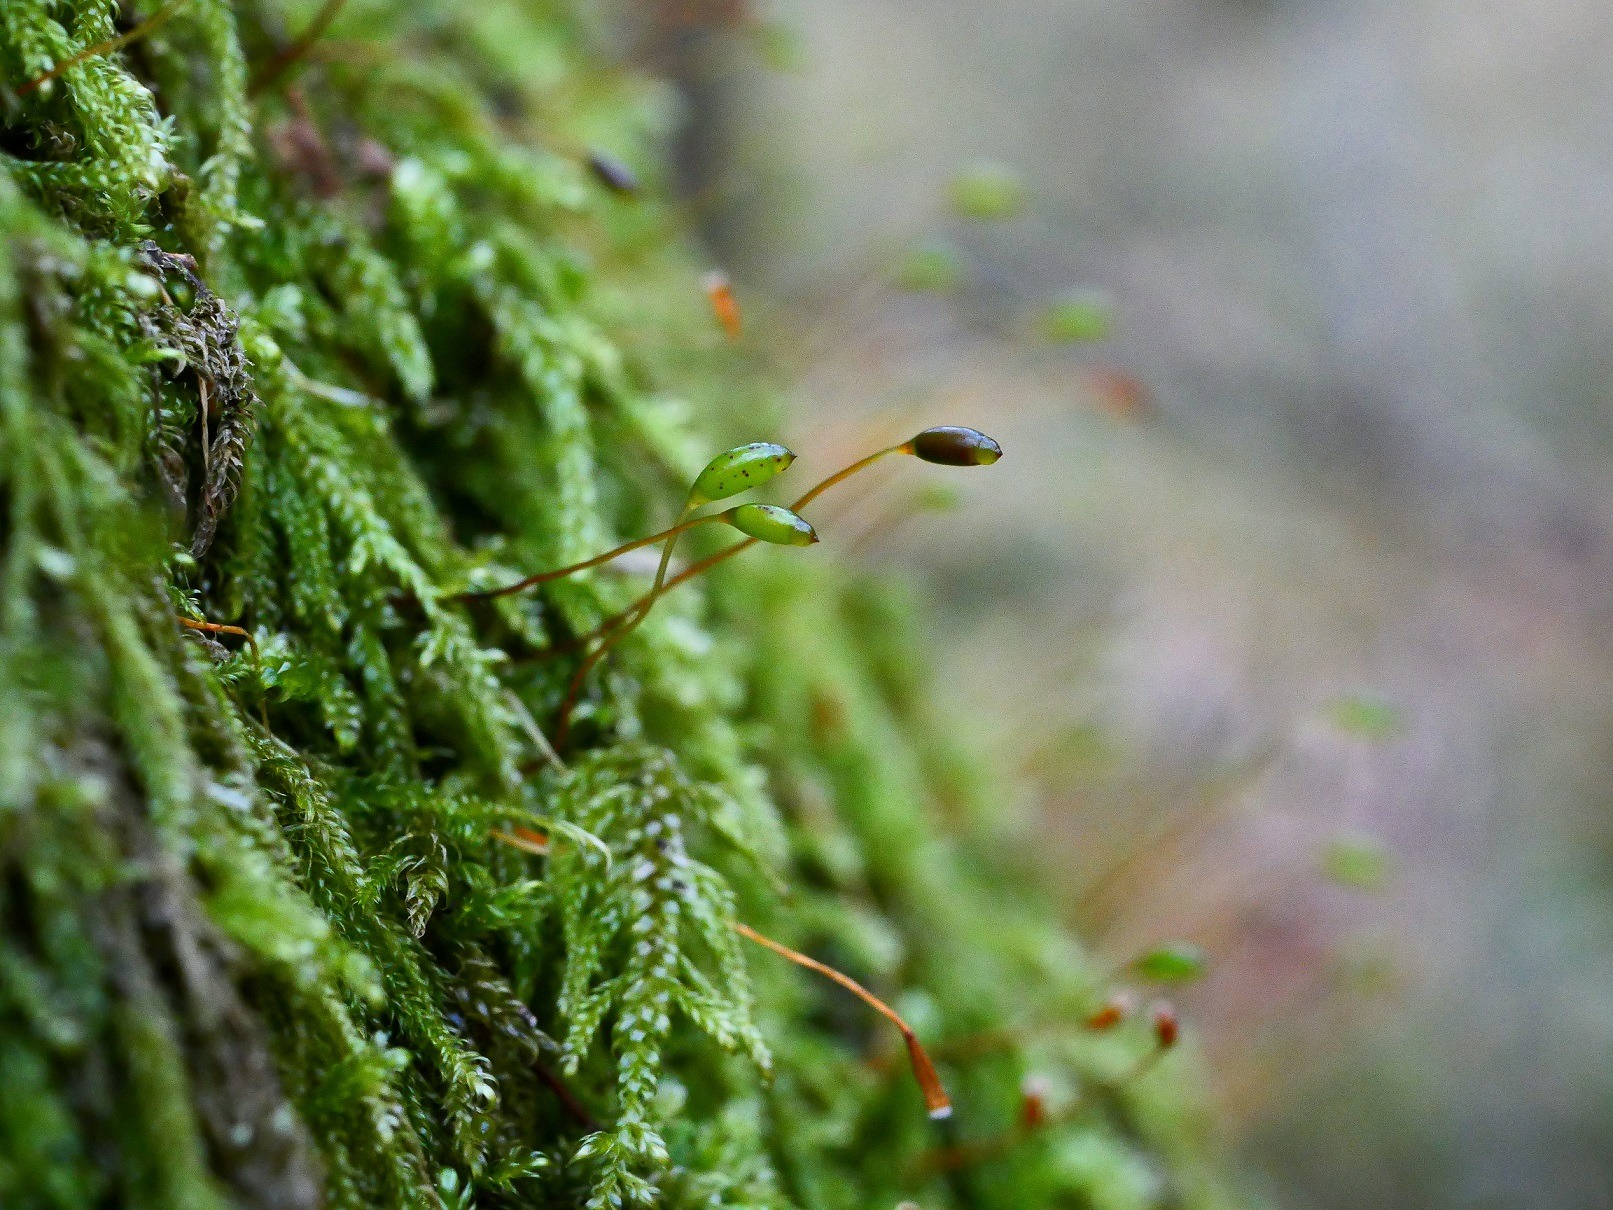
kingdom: Plantae
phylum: Bryophyta
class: Bryopsida
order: Hypnales
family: Hypnaceae
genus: Hypnum
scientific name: Hypnum andoi
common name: Vortet cypresmos
